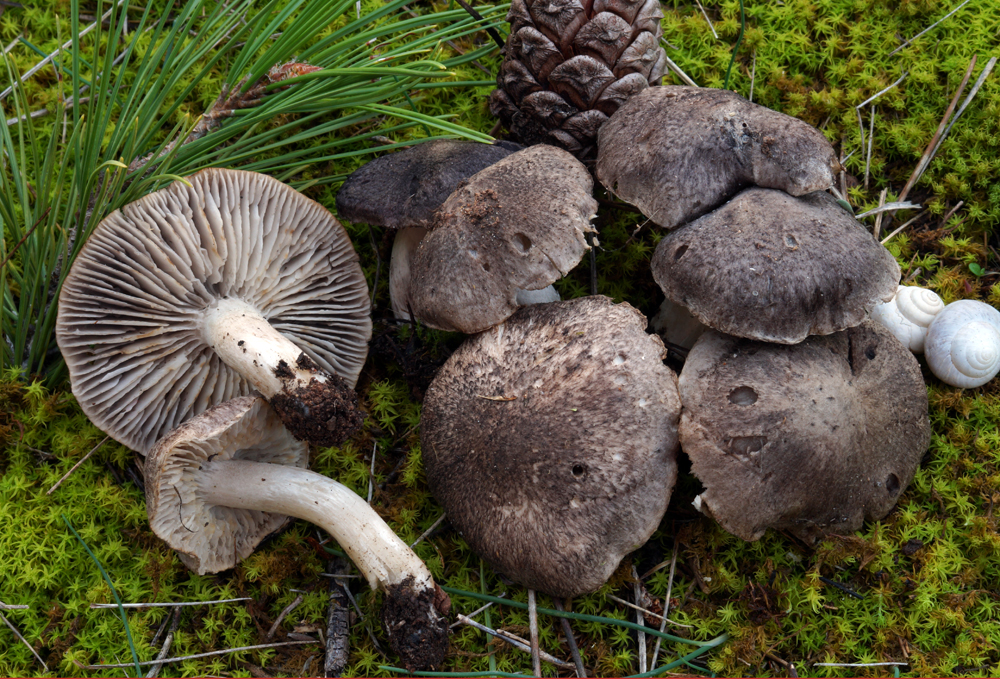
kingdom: Fungi
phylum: Basidiomycota
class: Agaricomycetes
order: Agaricales
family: Tricholomataceae
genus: Tricholoma
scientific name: Tricholoma terreum
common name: jordfarvet ridderhat
